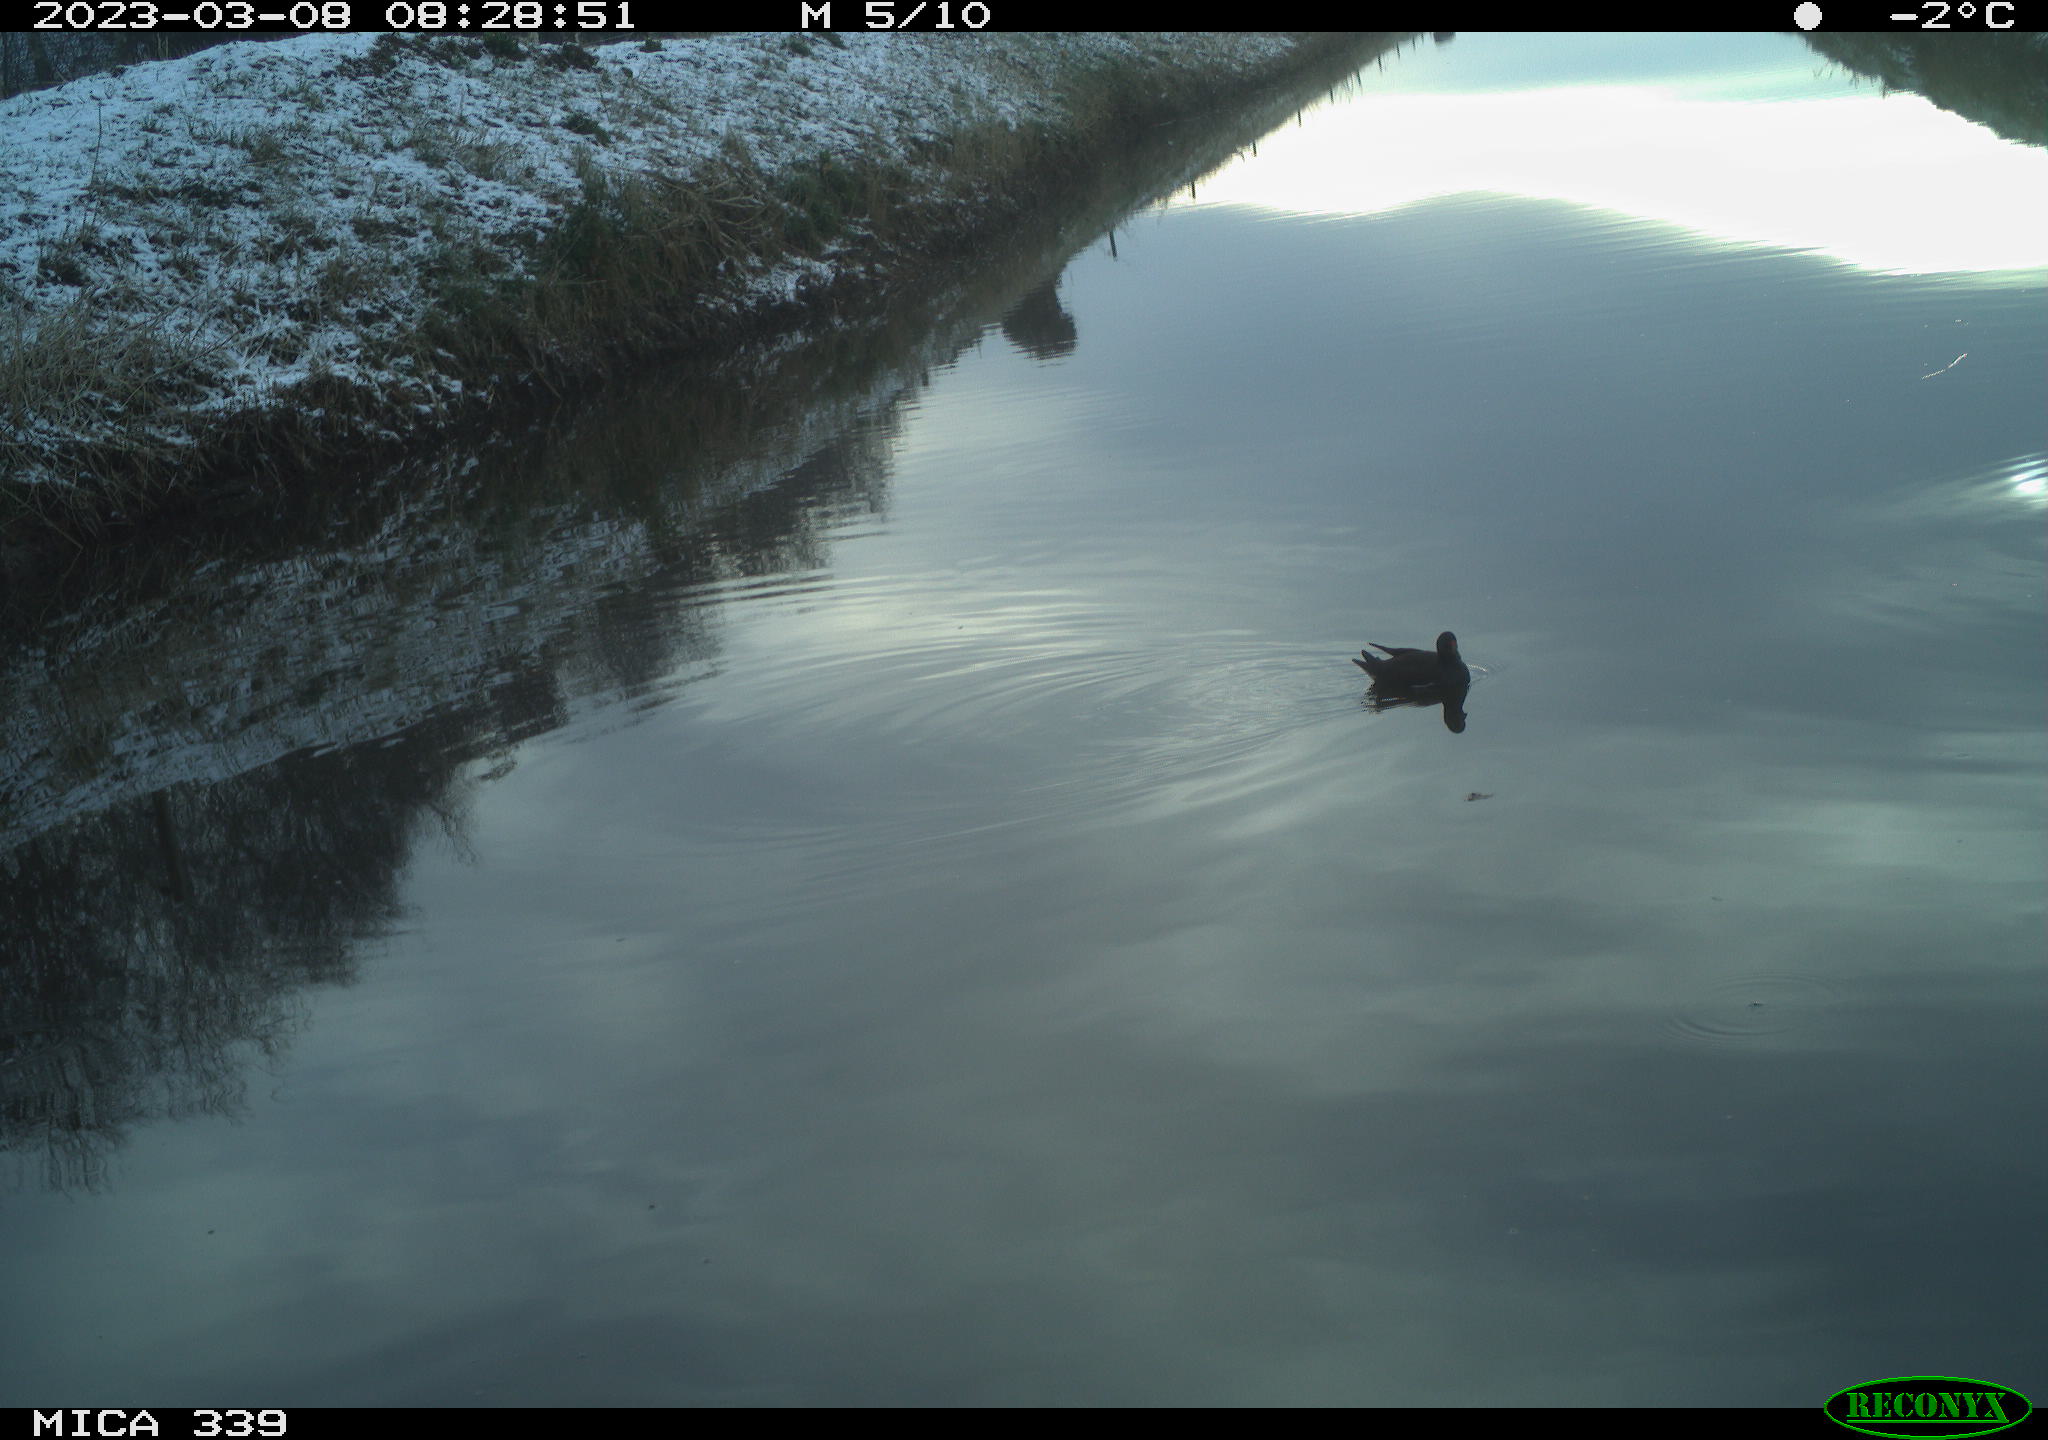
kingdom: Animalia
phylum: Chordata
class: Aves
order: Gruiformes
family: Rallidae
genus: Gallinula
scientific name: Gallinula chloropus
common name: Common moorhen
